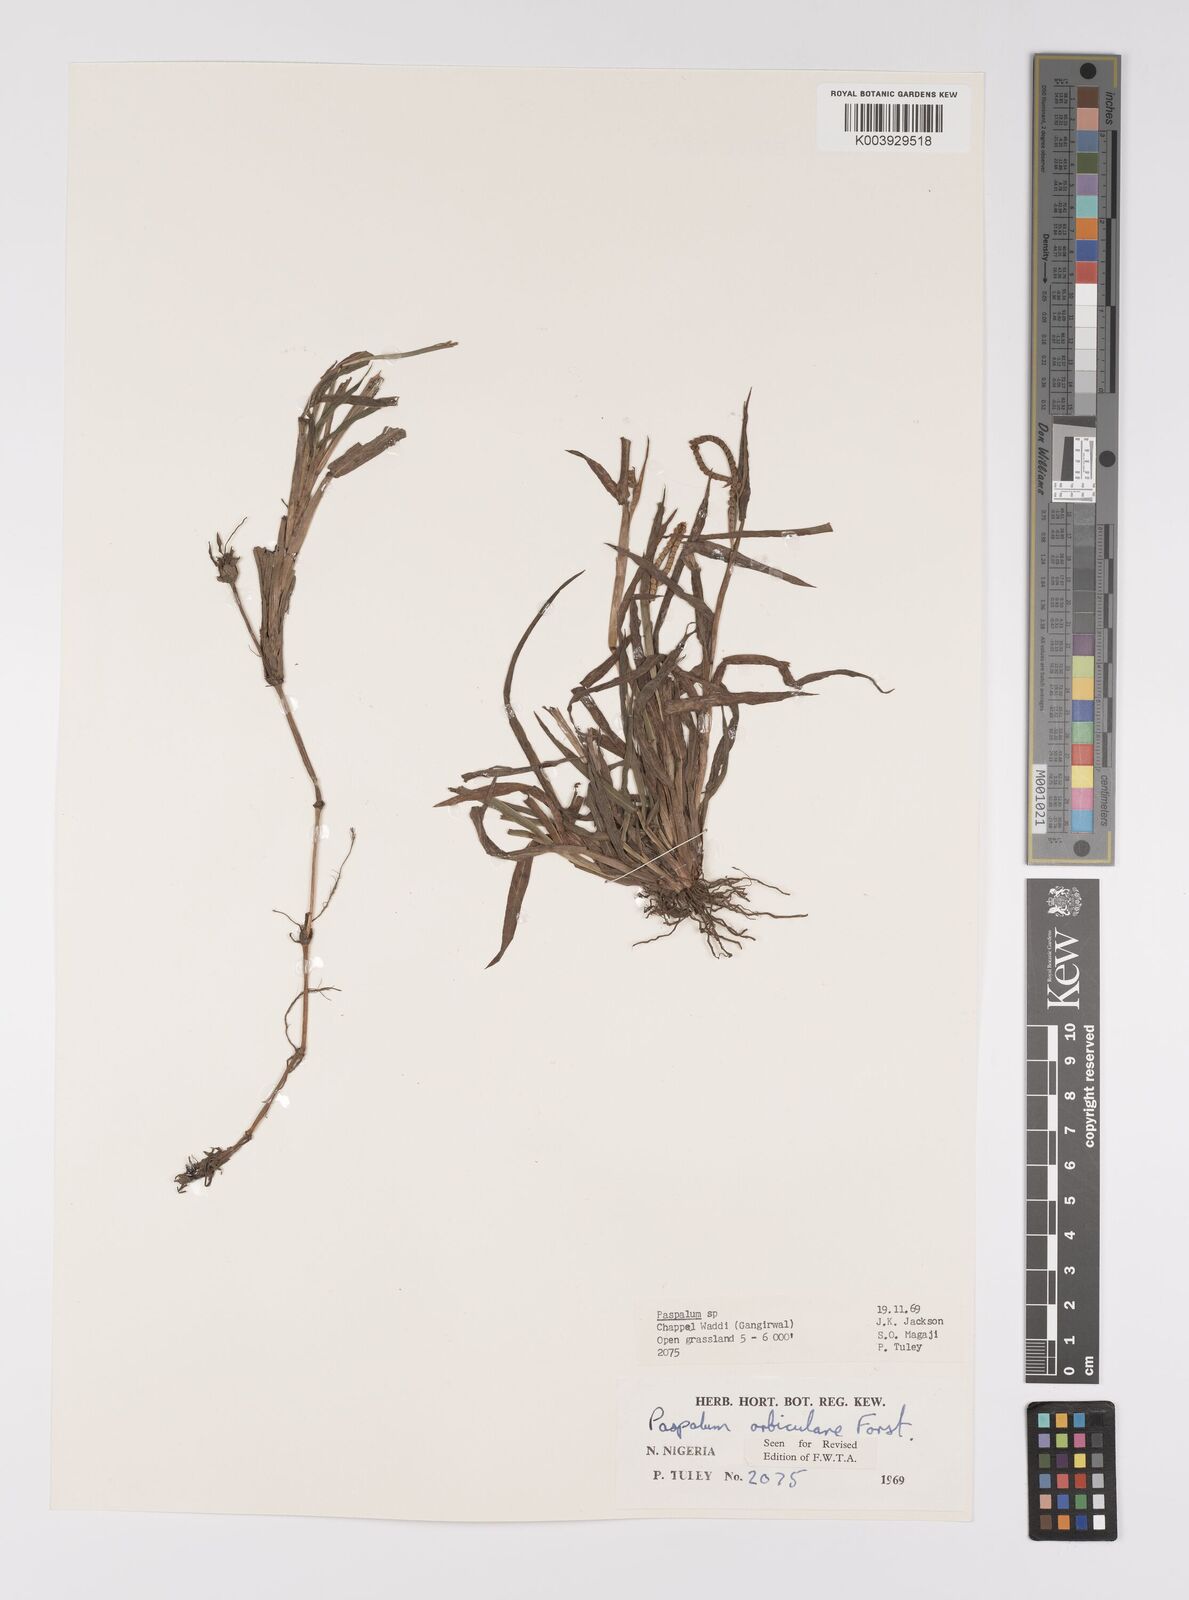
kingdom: Plantae
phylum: Tracheophyta
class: Liliopsida
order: Poales
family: Poaceae
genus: Paspalum
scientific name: Paspalum scrobiculatum
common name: Kodo millet
